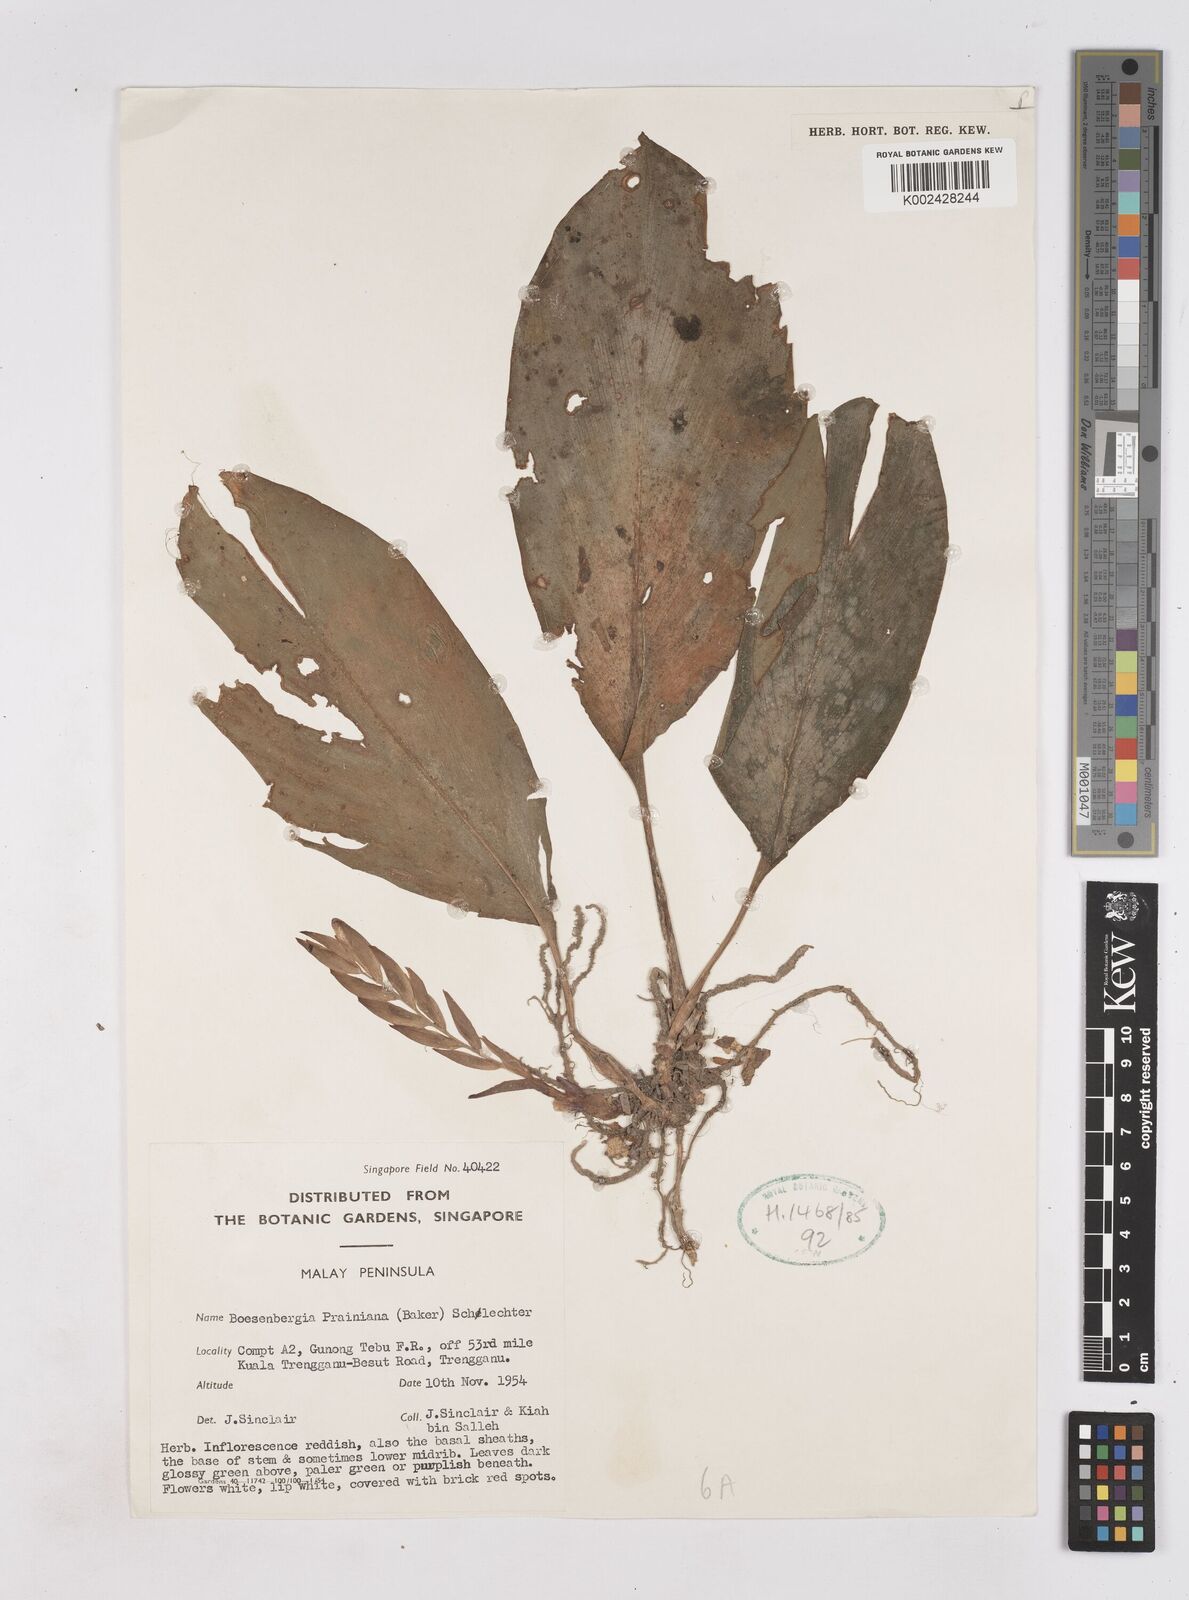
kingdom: Plantae
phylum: Tracheophyta
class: Liliopsida
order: Zingiberales
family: Zingiberaceae
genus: Boesenbergia
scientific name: Boesenbergia prainiana
